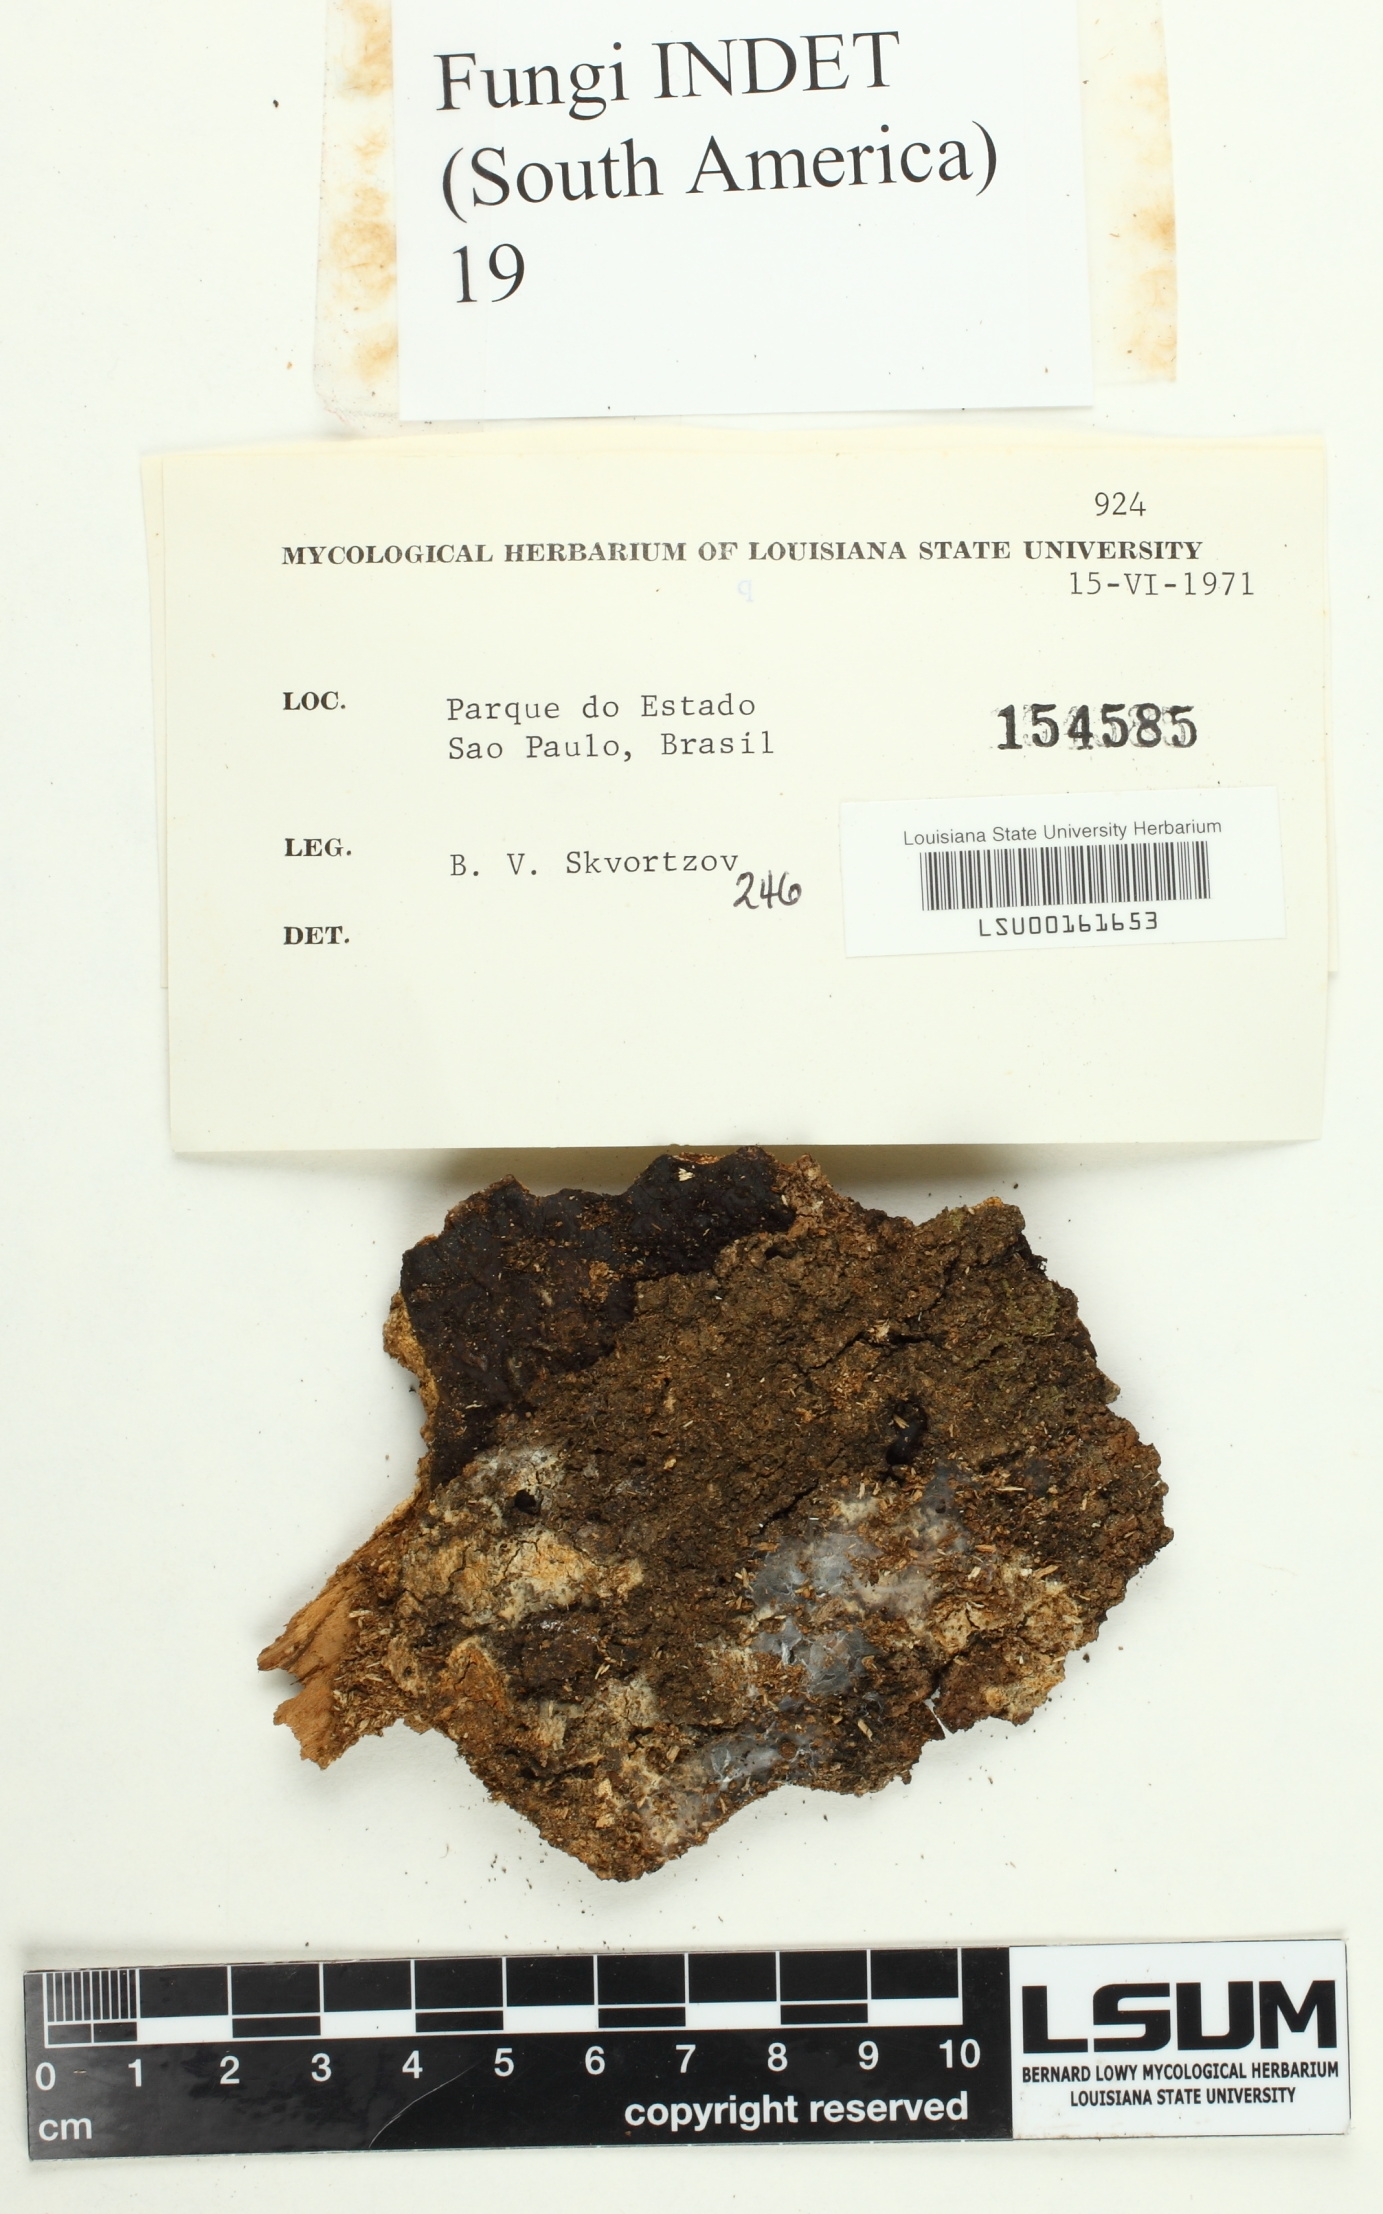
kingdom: Fungi
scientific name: Fungi
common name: Fungi
